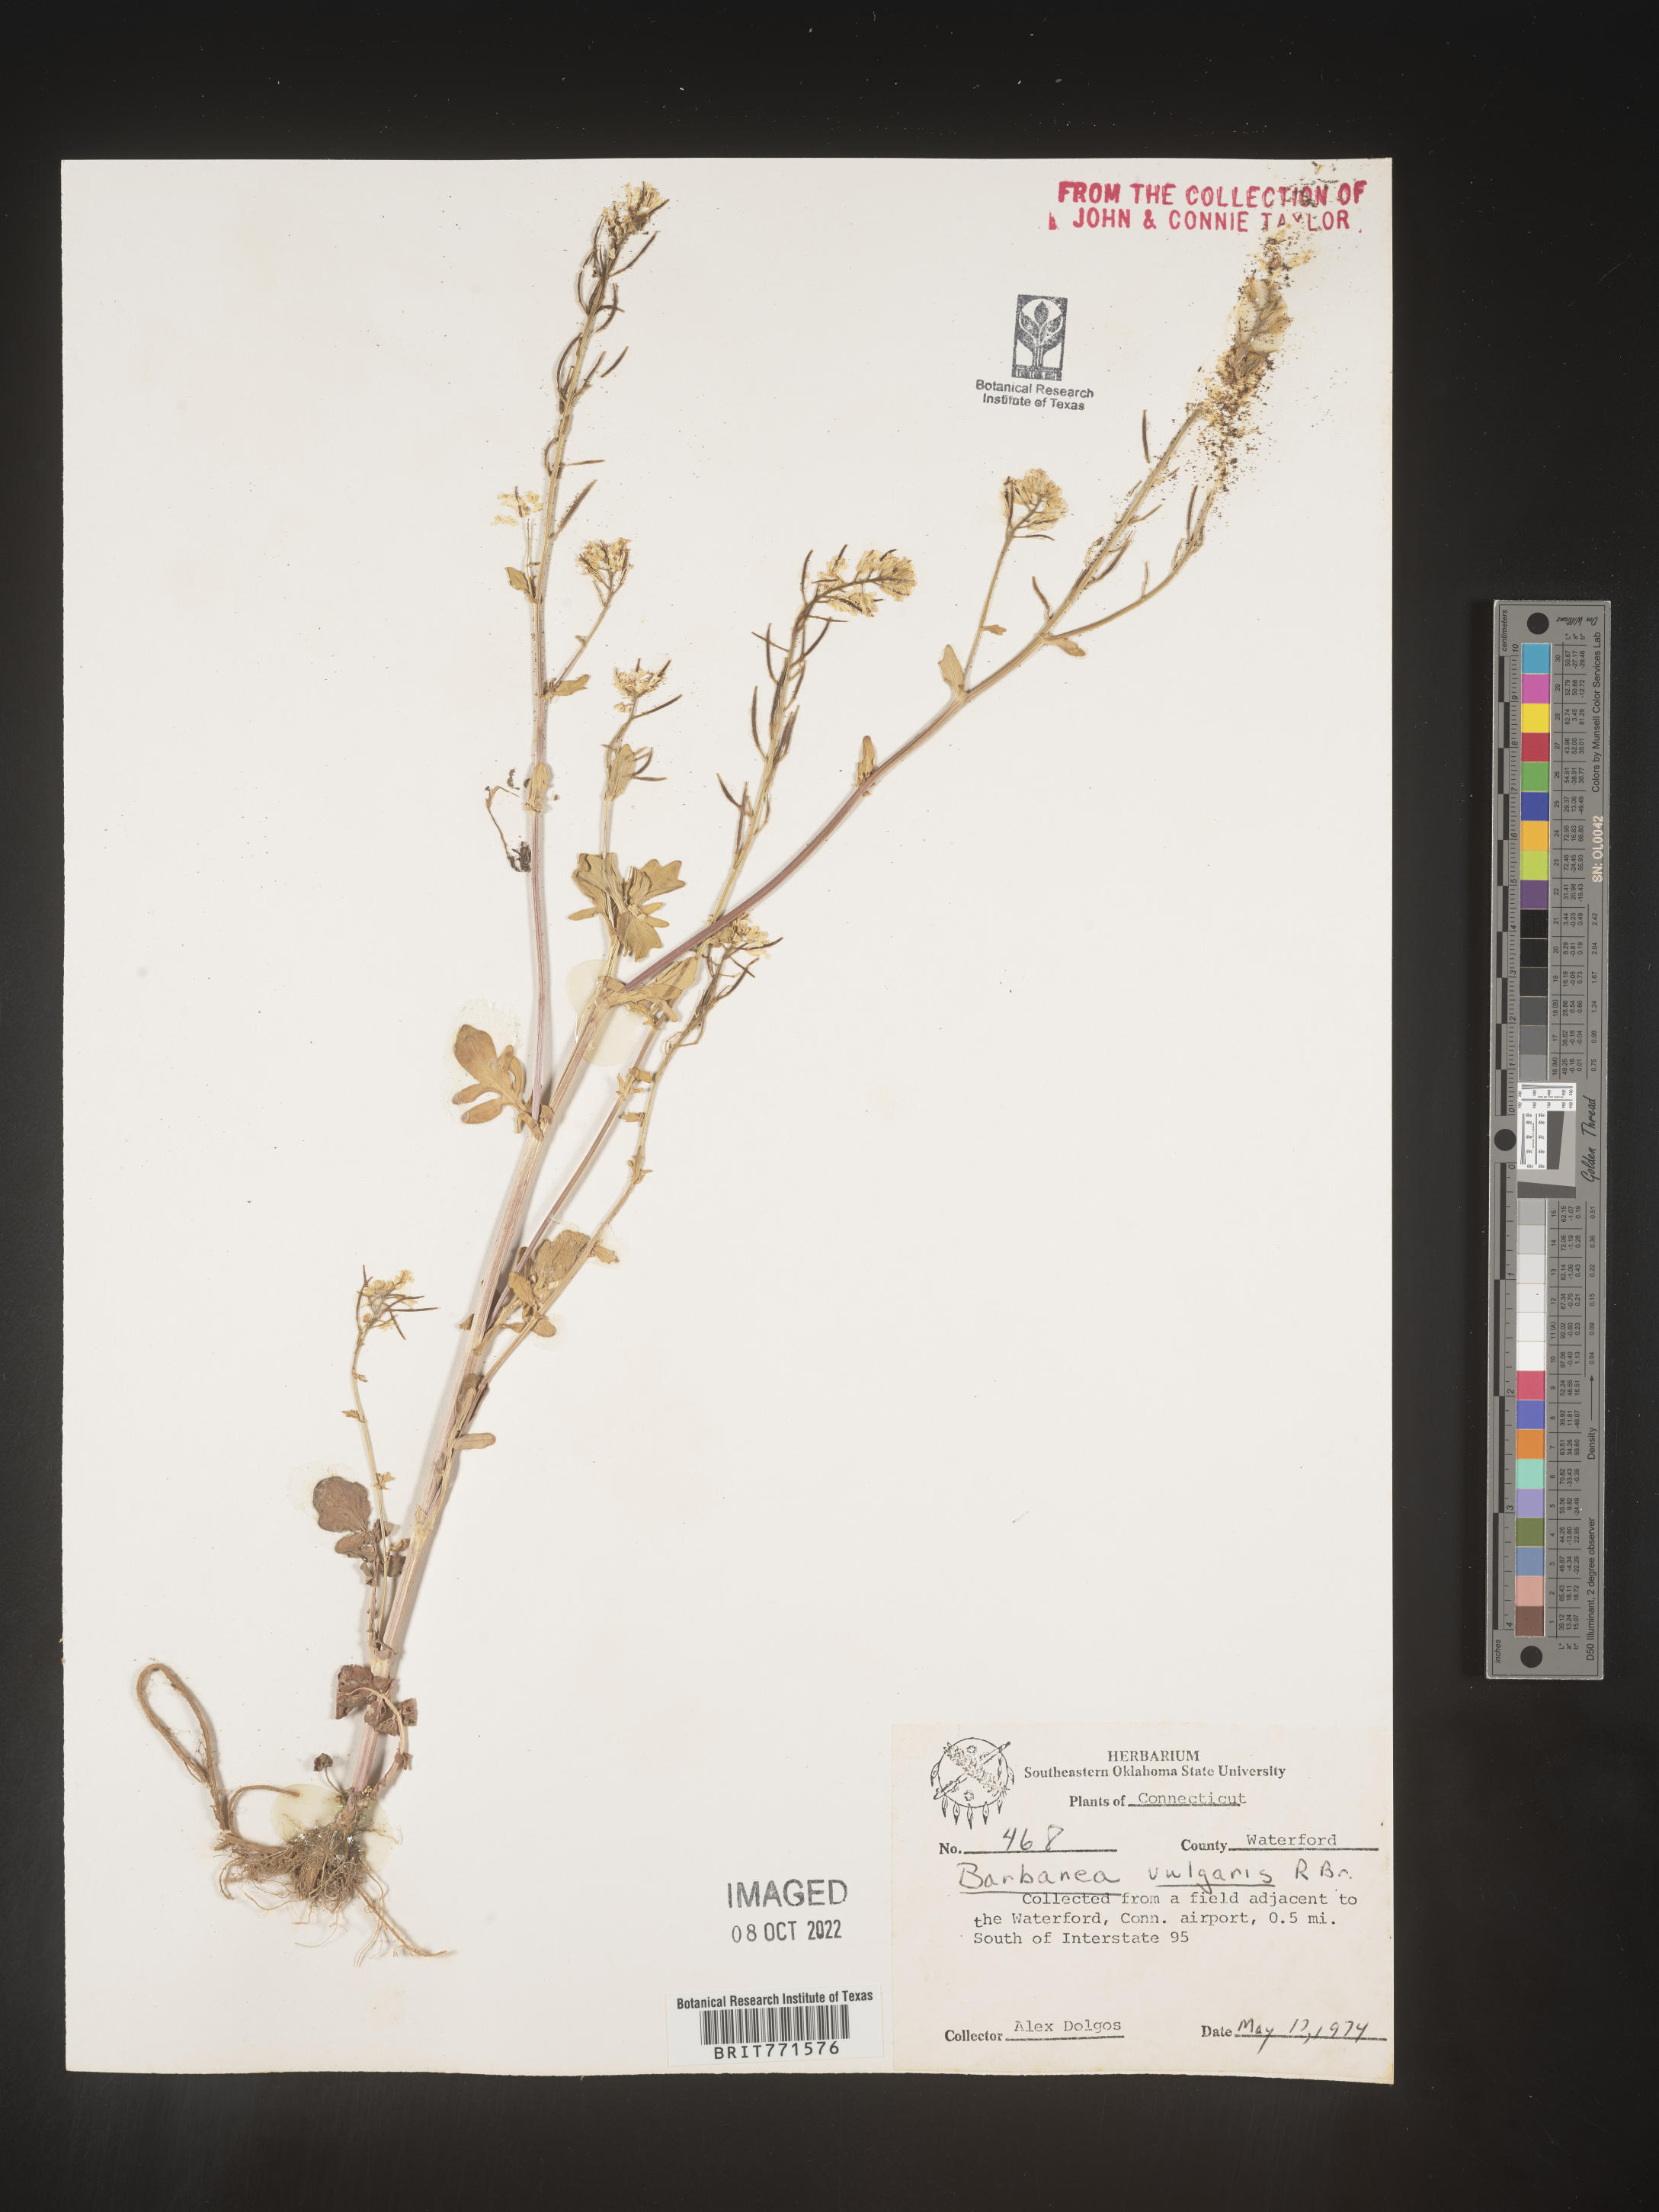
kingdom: Plantae
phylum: Tracheophyta
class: Magnoliopsida
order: Brassicales
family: Brassicaceae
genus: Barbarea
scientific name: Barbarea vulgaris
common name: Cressy-greens
